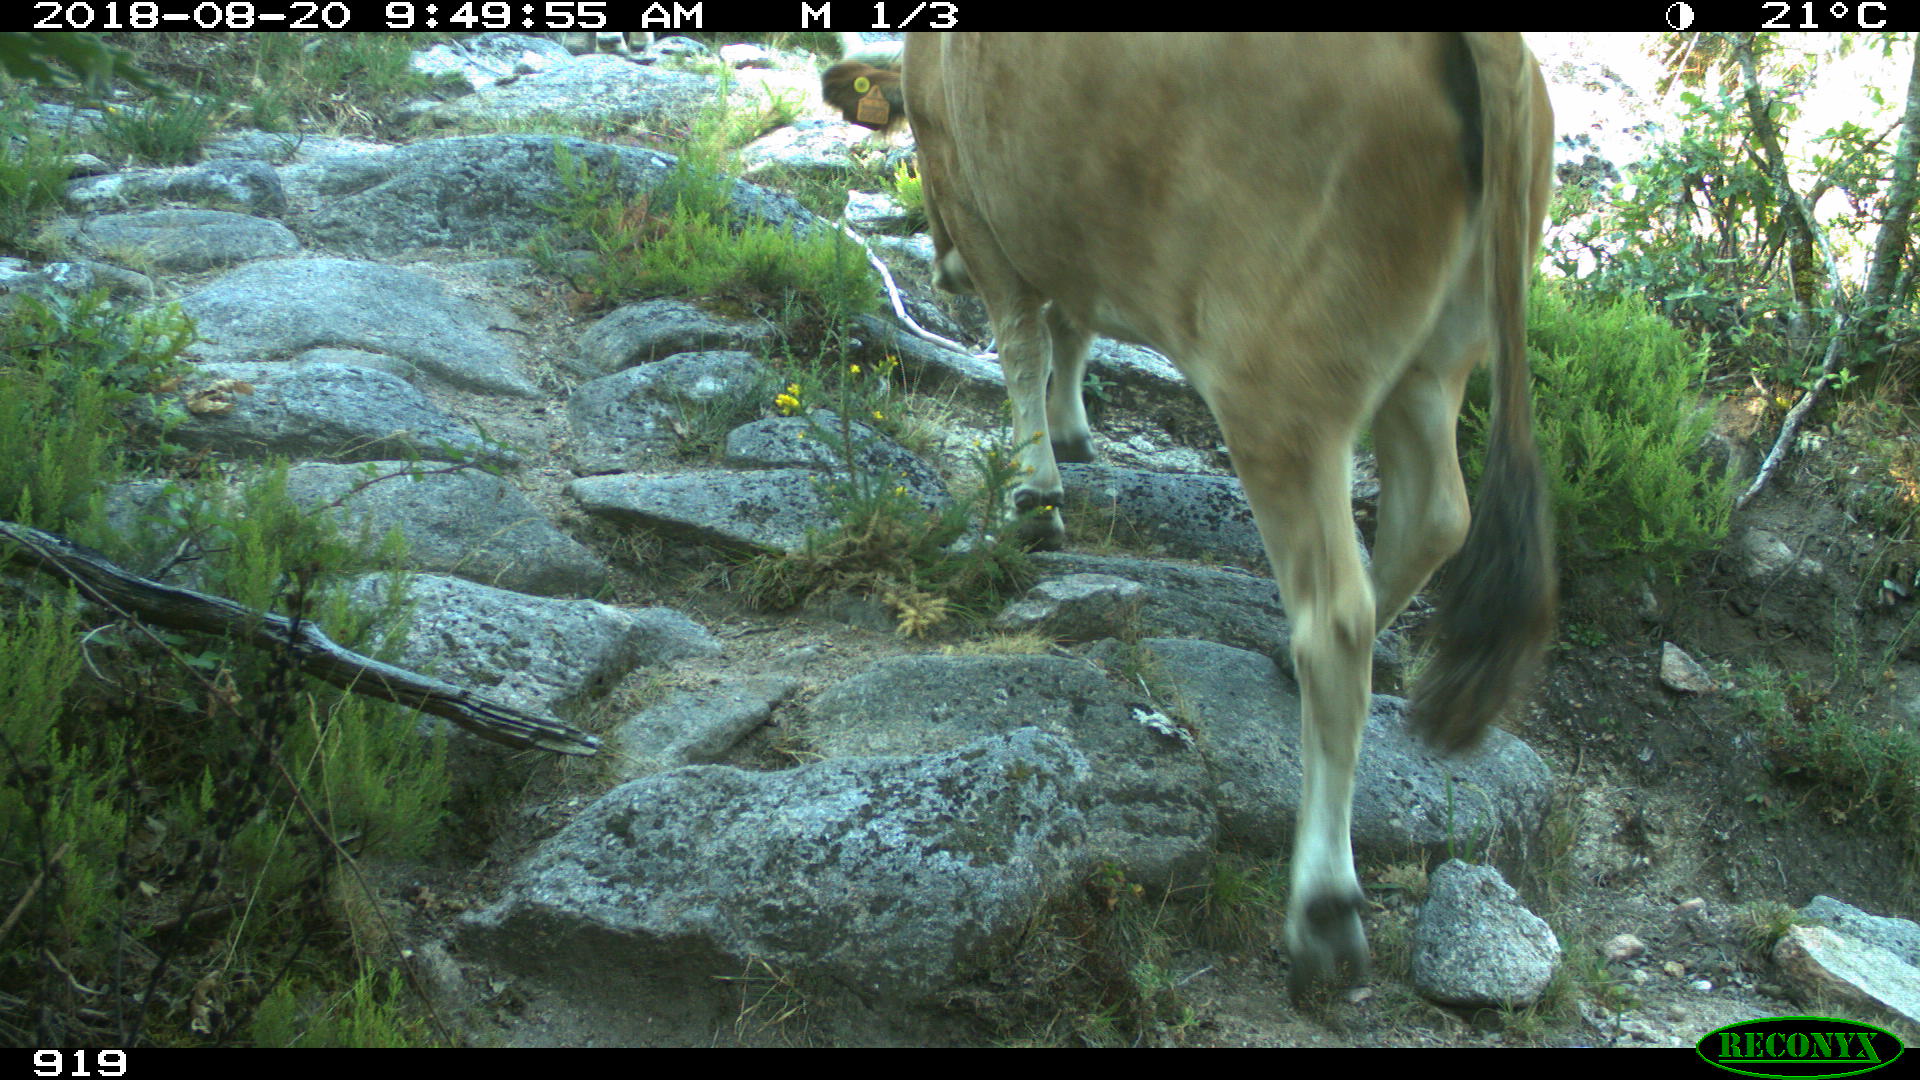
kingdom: Animalia
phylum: Chordata
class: Mammalia
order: Artiodactyla
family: Bovidae
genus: Bos
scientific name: Bos taurus
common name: Domesticated cattle
